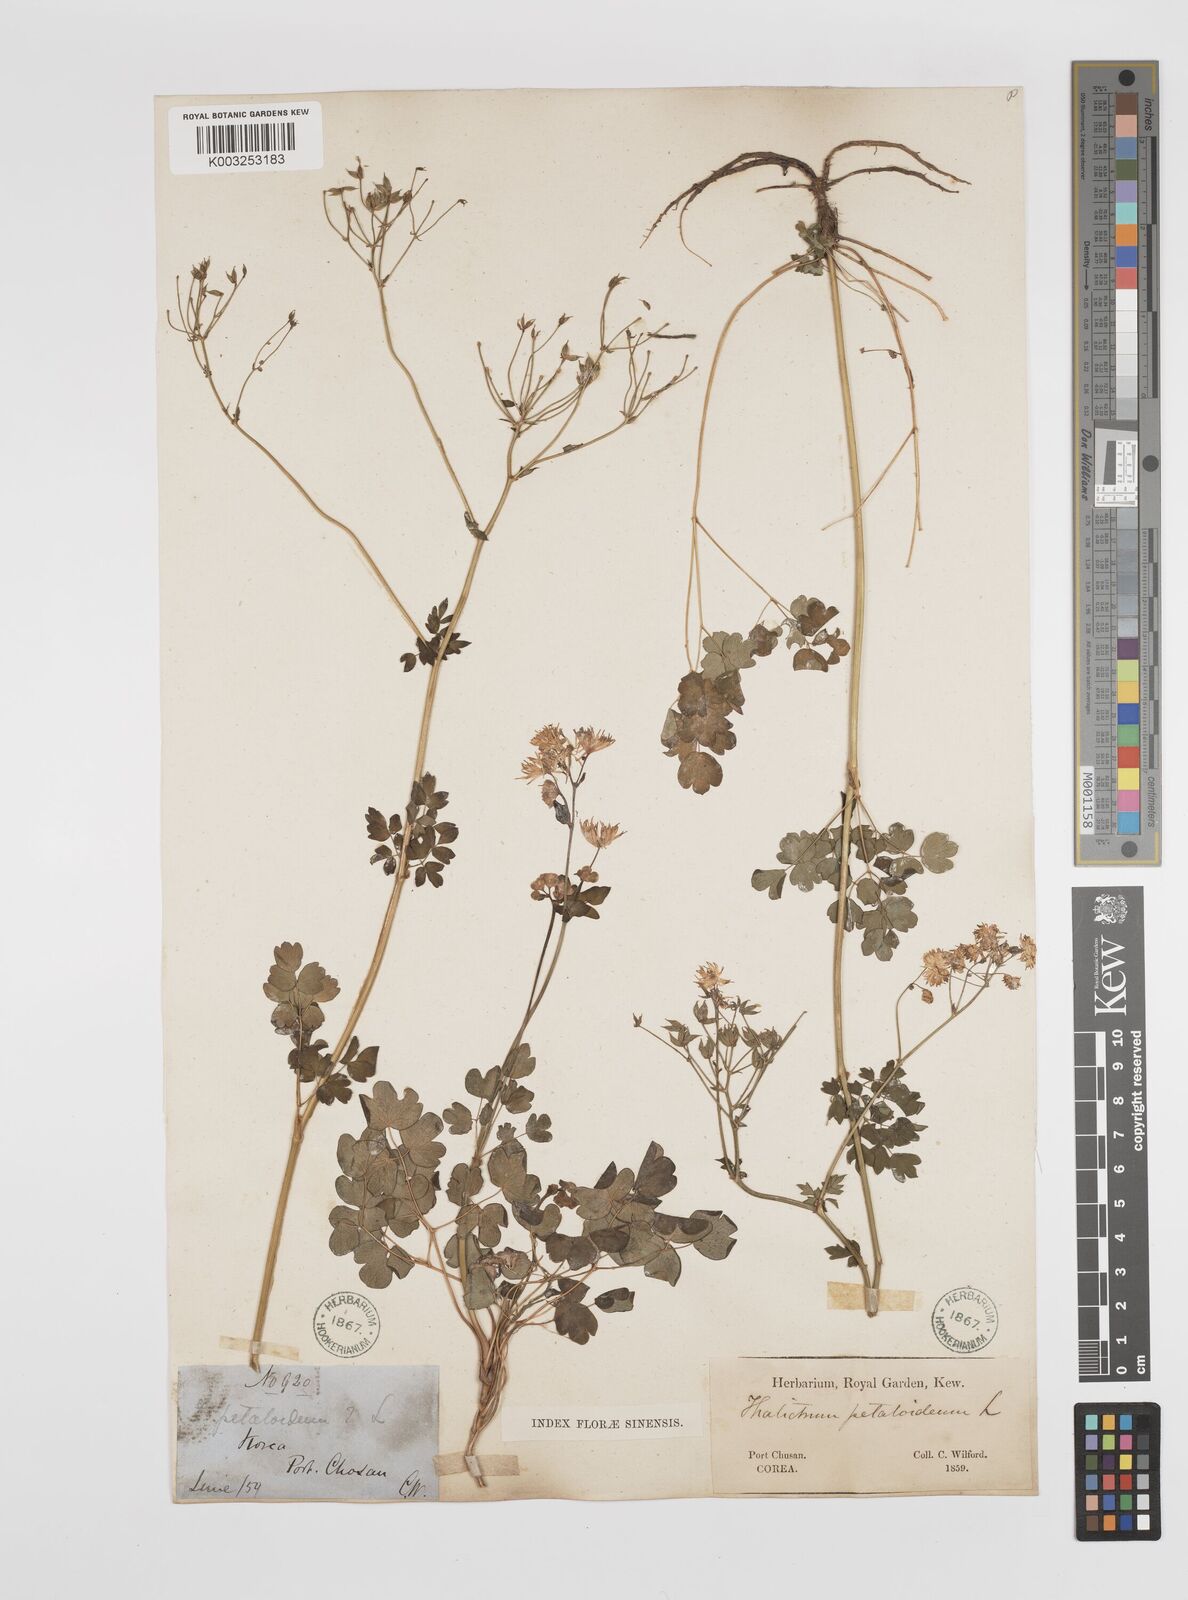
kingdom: Plantae
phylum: Tracheophyta
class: Magnoliopsida
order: Ranunculales
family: Ranunculaceae
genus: Thalictrum
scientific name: Thalictrum petaloideum
